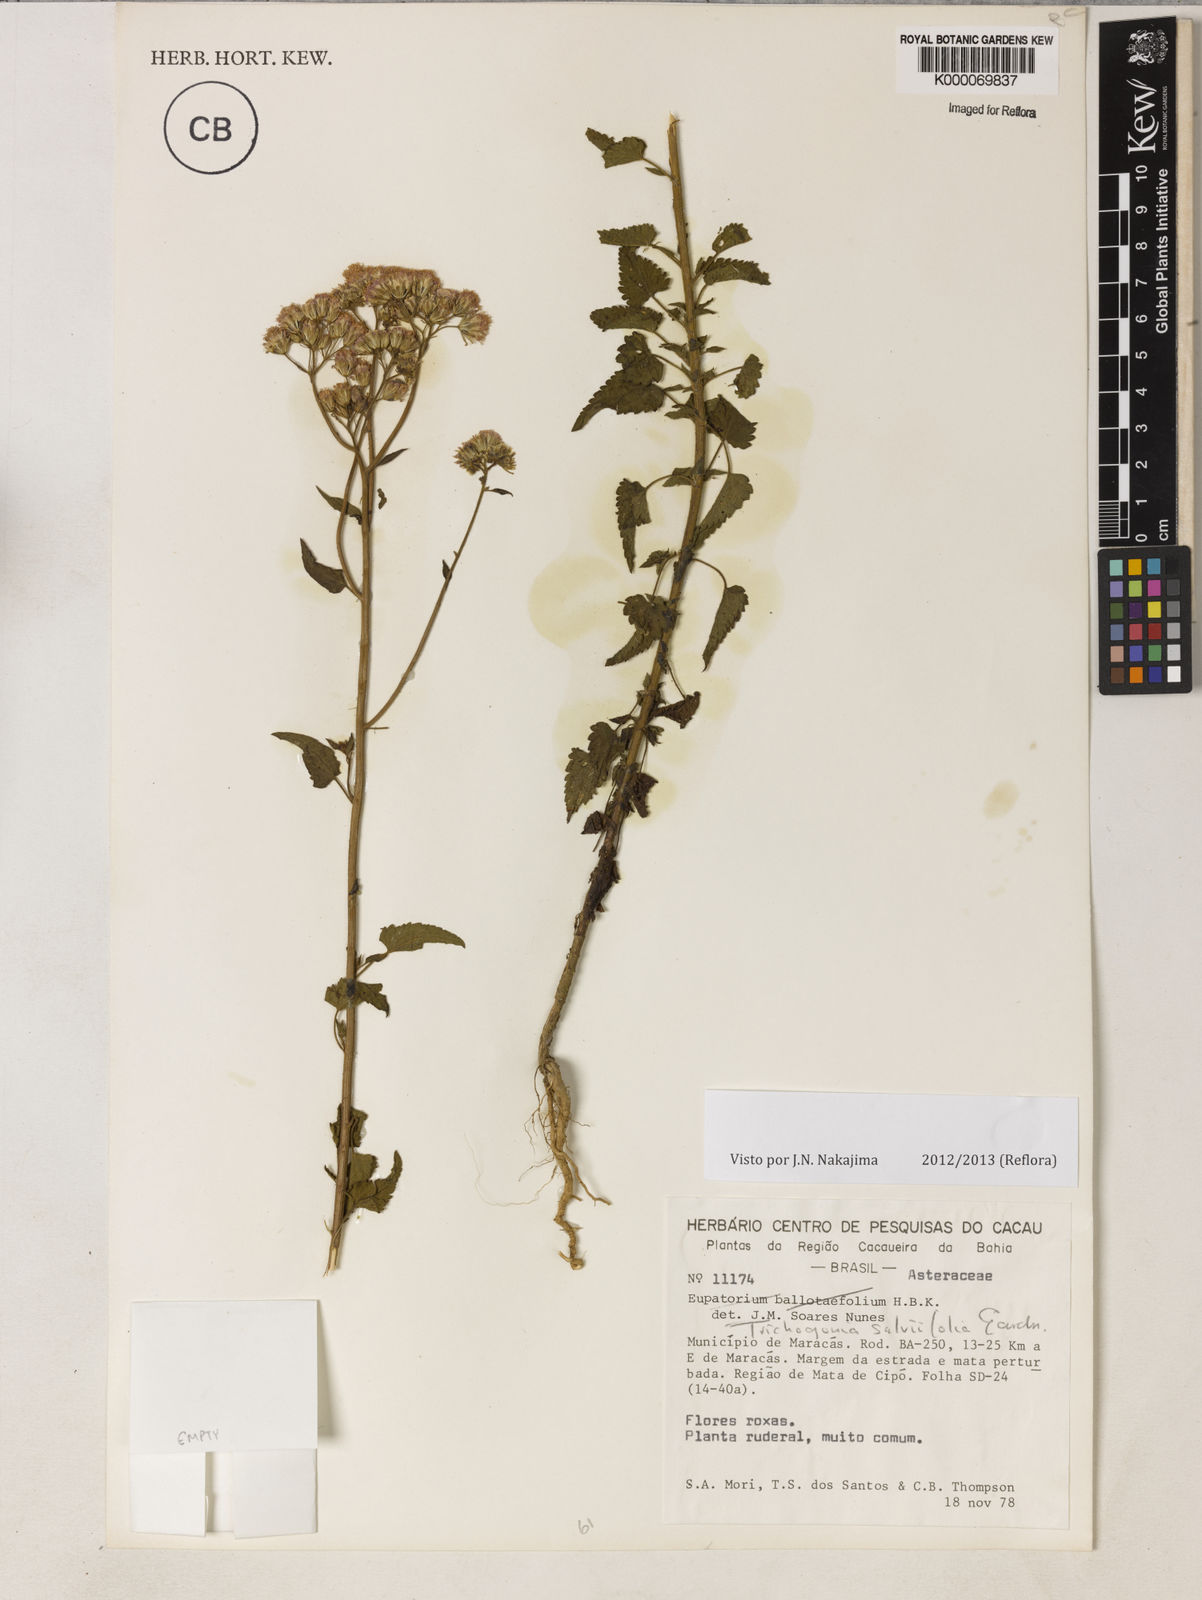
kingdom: Plantae
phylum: Tracheophyta
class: Magnoliopsida
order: Asterales
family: Asteraceae
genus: Trichogonia
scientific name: Trichogonia salviifolia
